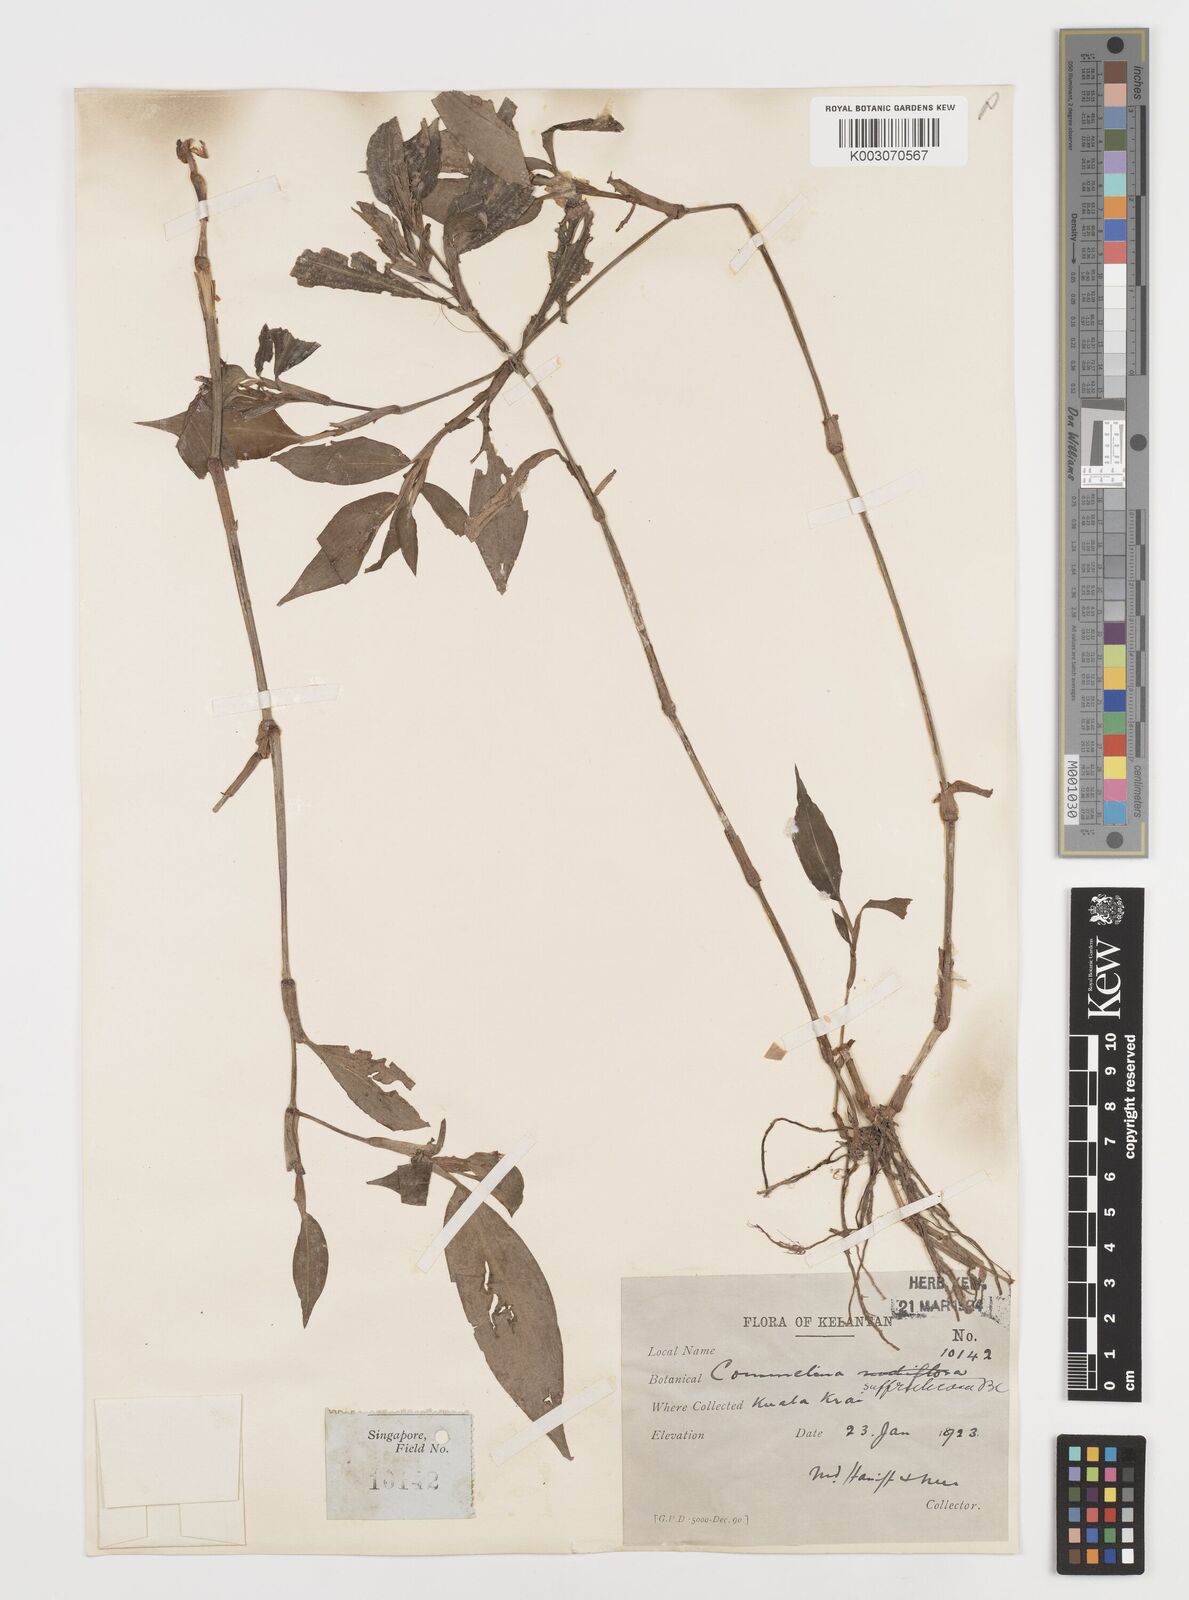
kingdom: Plantae
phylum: Tracheophyta
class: Liliopsida
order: Commelinales
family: Commelinaceae
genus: Commelina
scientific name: Commelina suffruticosa
